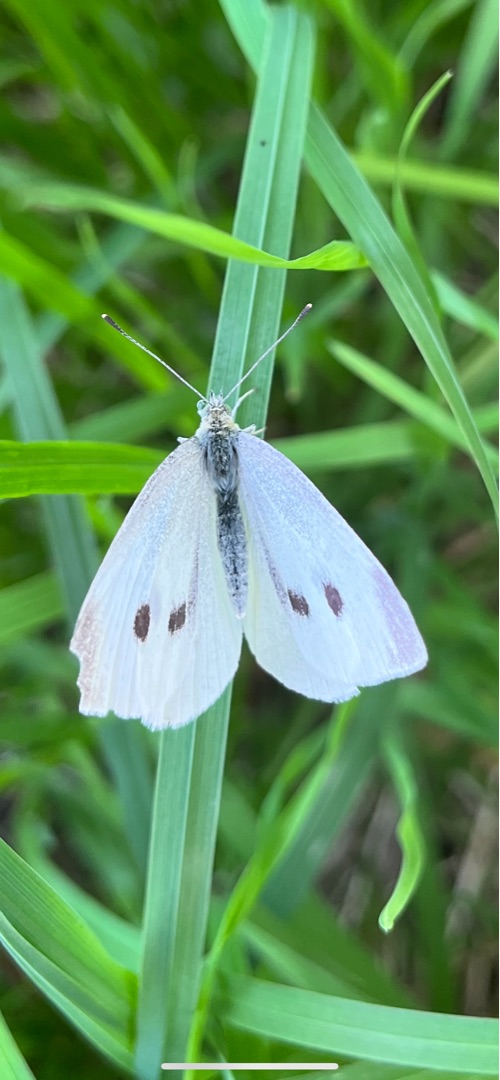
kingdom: Animalia
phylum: Arthropoda
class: Insecta
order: Lepidoptera
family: Pieridae
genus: Pieris
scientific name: Pieris rapae
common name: Lille kålsommerfugl
